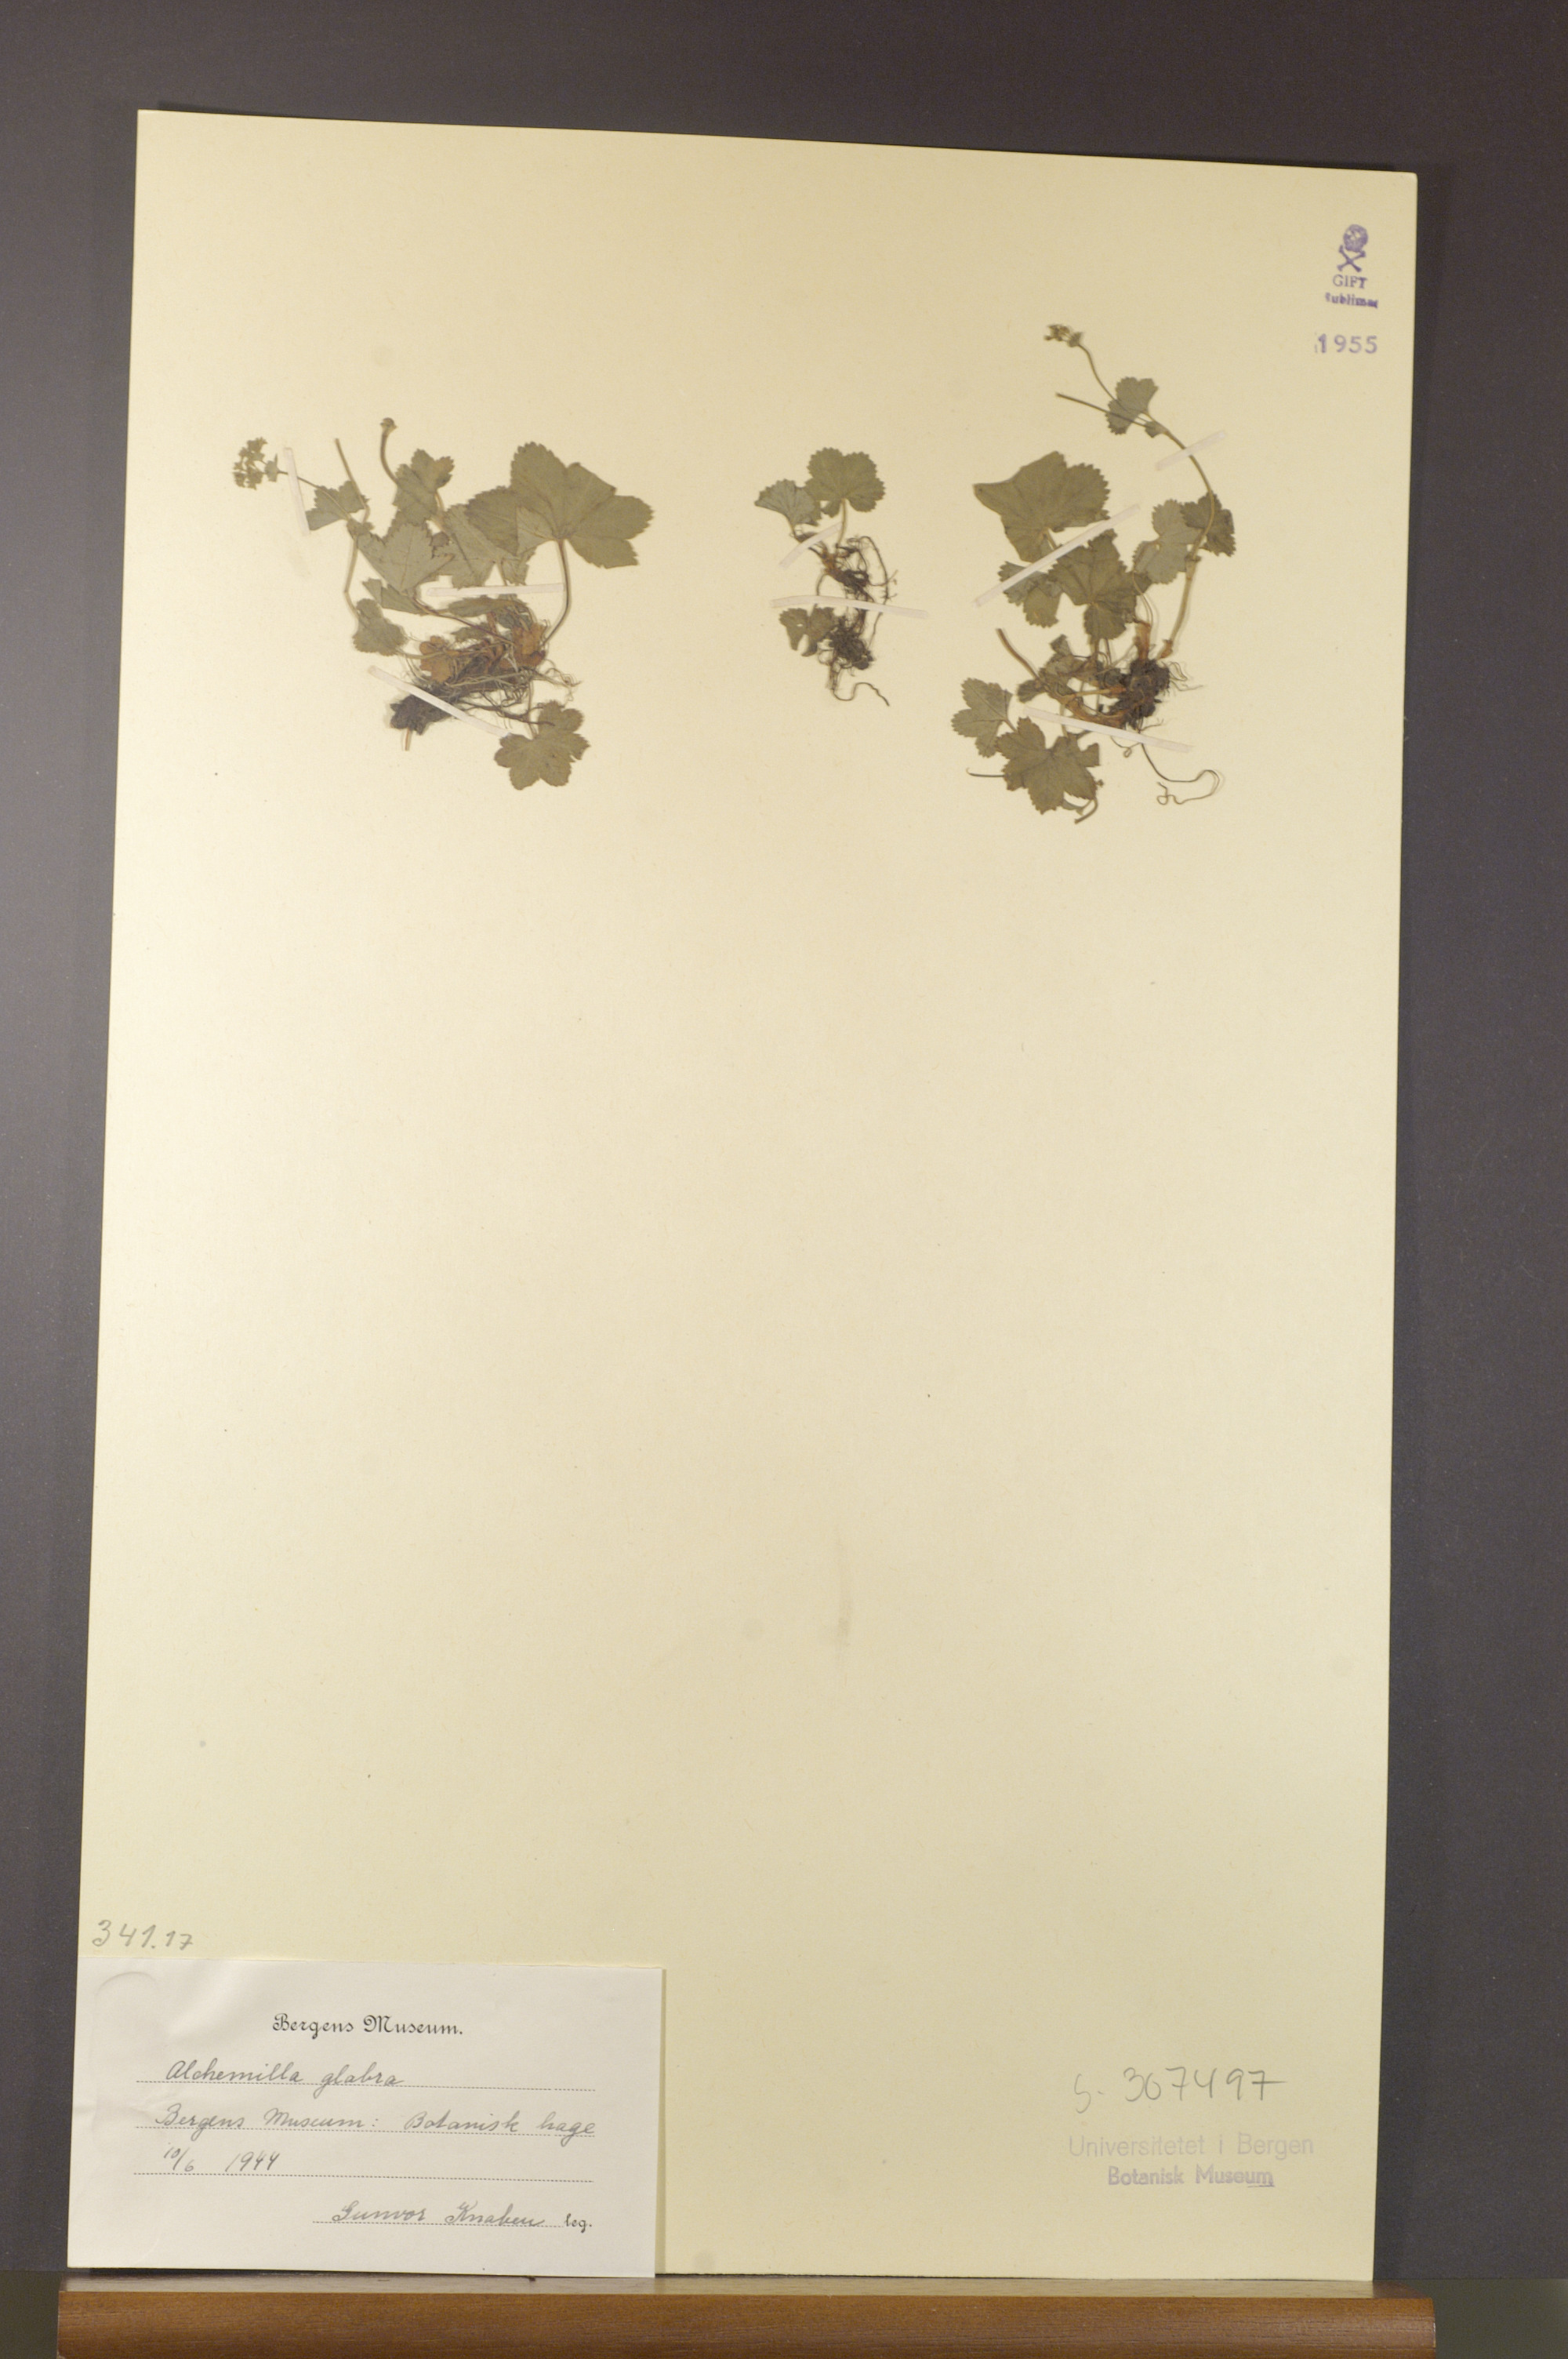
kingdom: Plantae
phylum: Tracheophyta
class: Magnoliopsida
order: Rosales
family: Rosaceae
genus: Alchemilla
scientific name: Alchemilla glabra
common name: Smooth lady's-mantle
